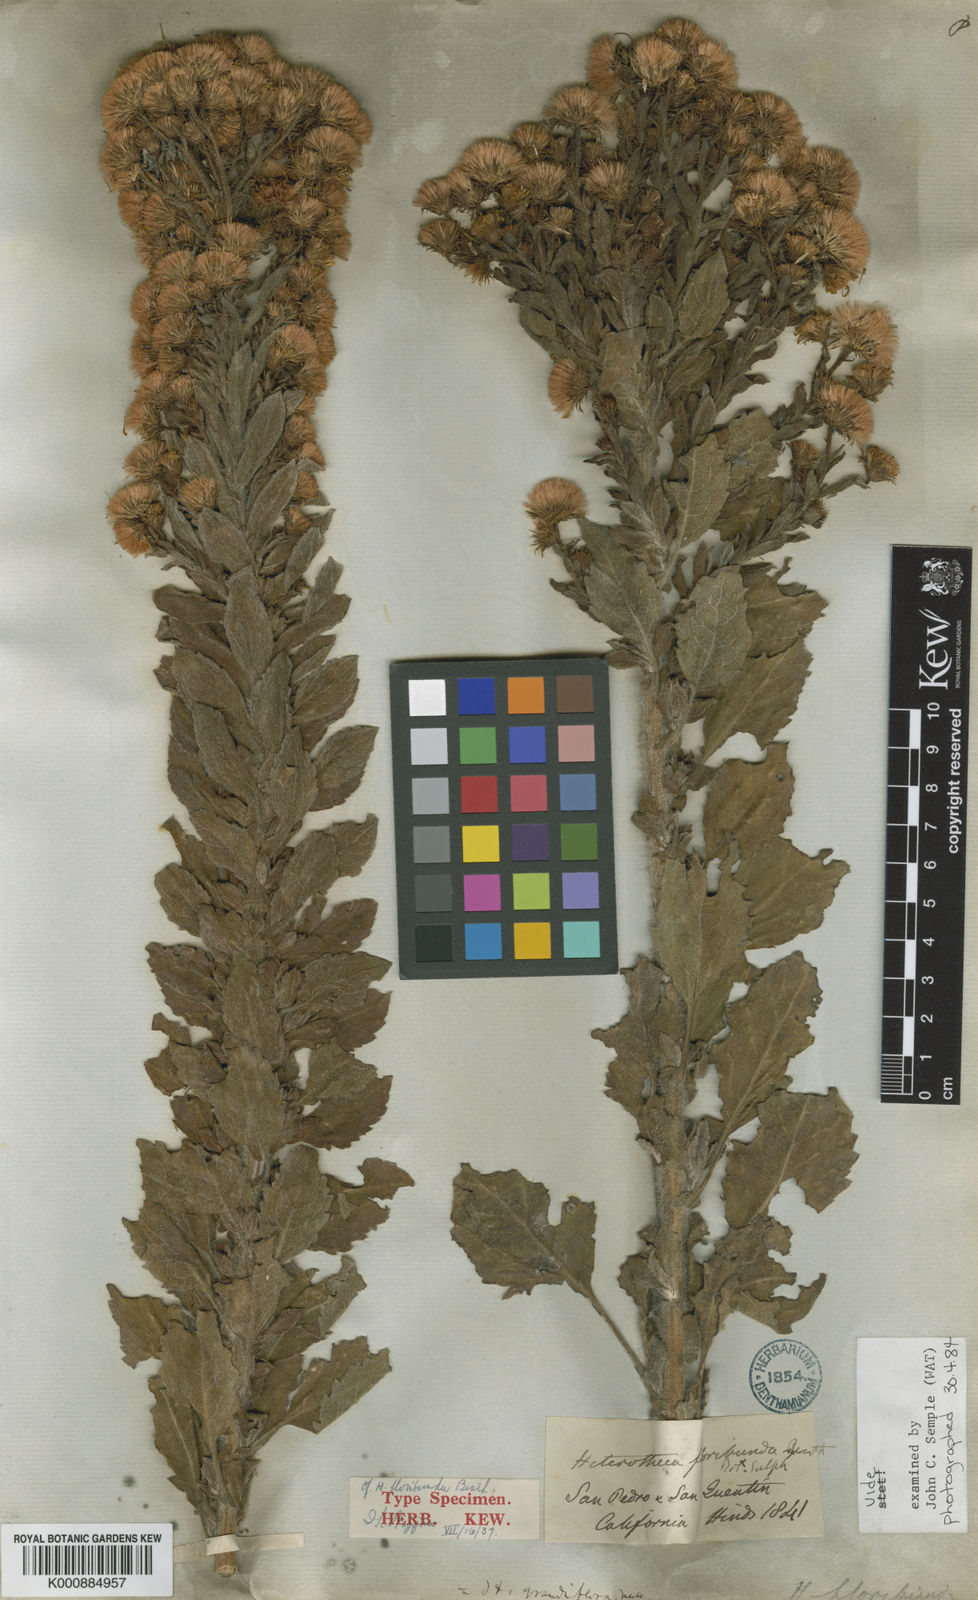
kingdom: Plantae
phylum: Tracheophyta
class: Magnoliopsida
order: Asterales
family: Asteraceae
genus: Heterotheca
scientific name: Heterotheca grandiflora
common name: Telegraphweed
